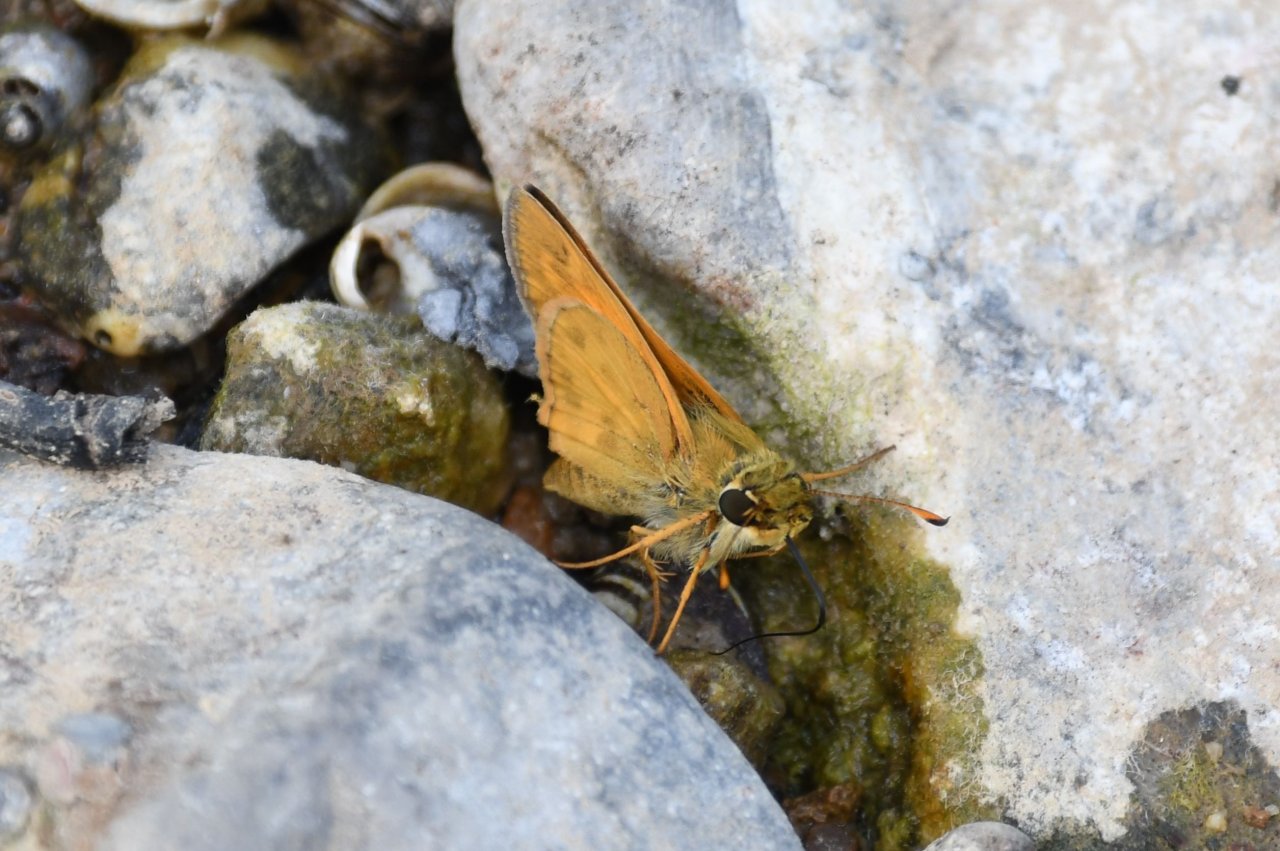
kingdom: Animalia
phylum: Arthropoda
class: Insecta
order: Lepidoptera
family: Hesperiidae
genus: Atalopedes
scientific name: Atalopedes campestris
